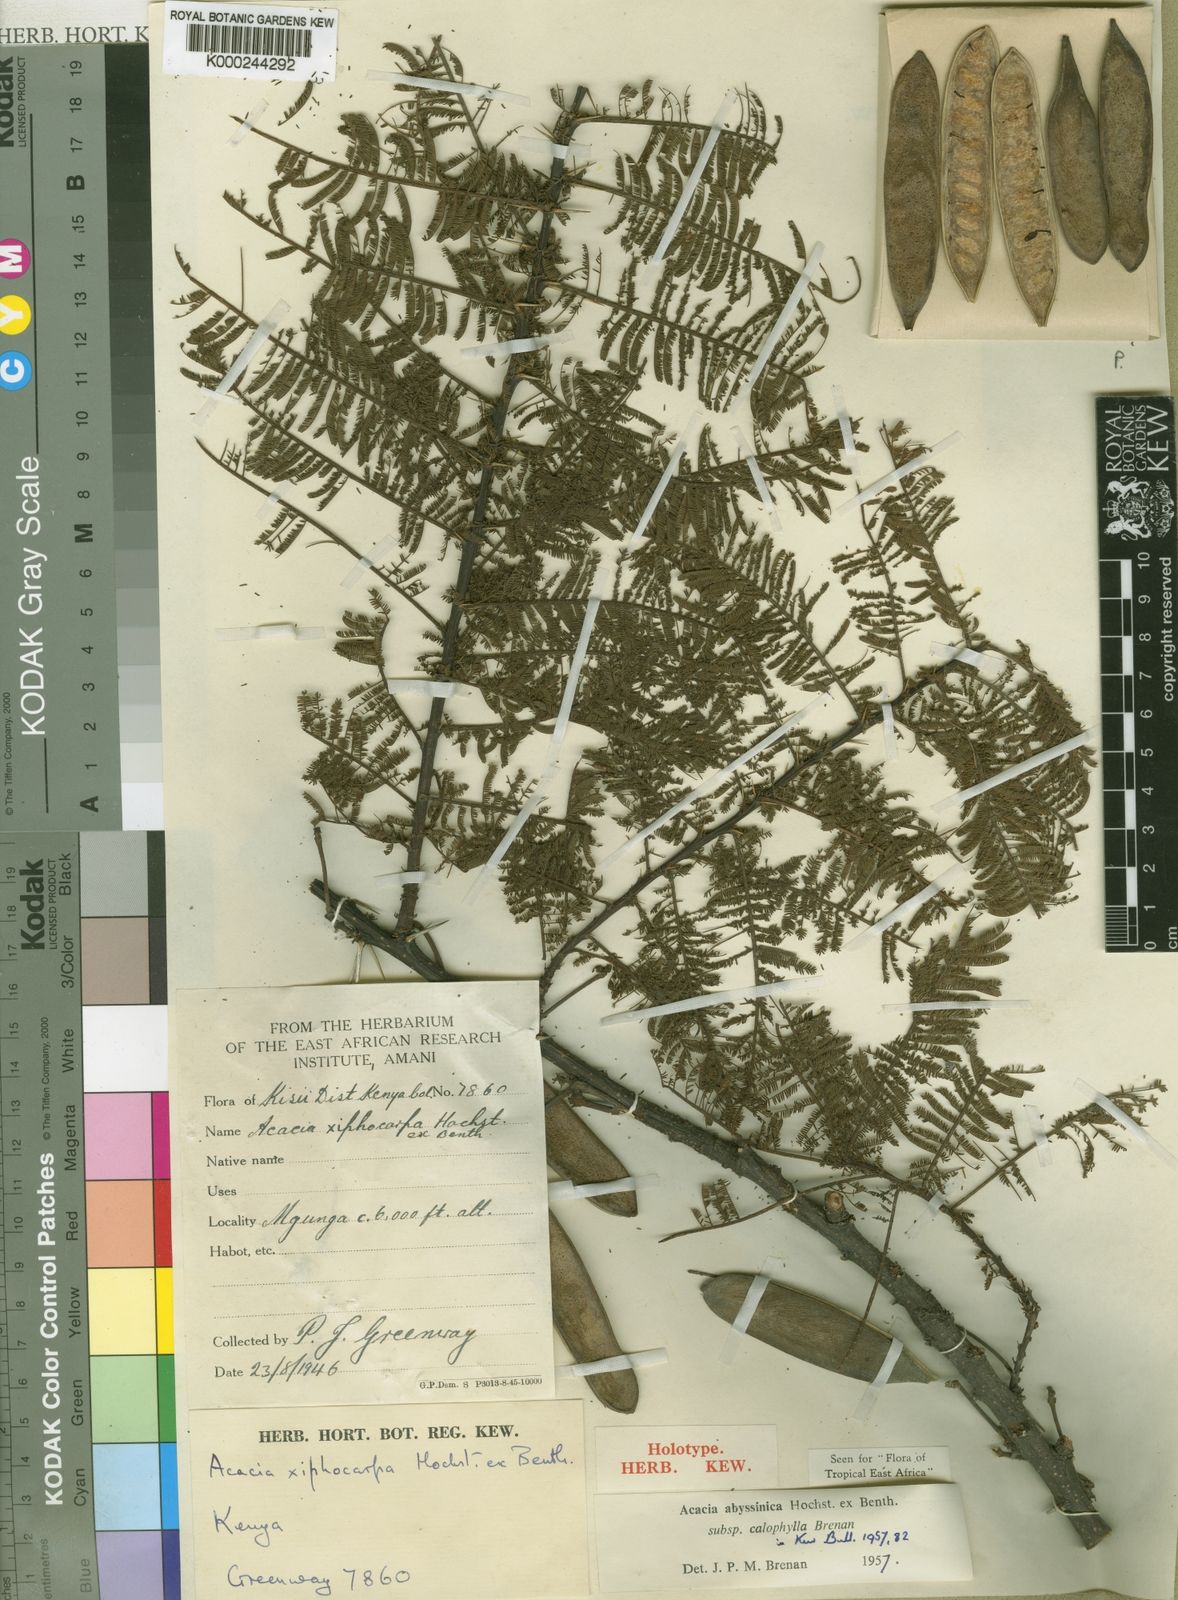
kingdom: Plantae
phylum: Tracheophyta
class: Magnoliopsida
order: Fabales
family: Fabaceae
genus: Vachellia
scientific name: Vachellia abyssinica
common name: Nyanga flat-top
